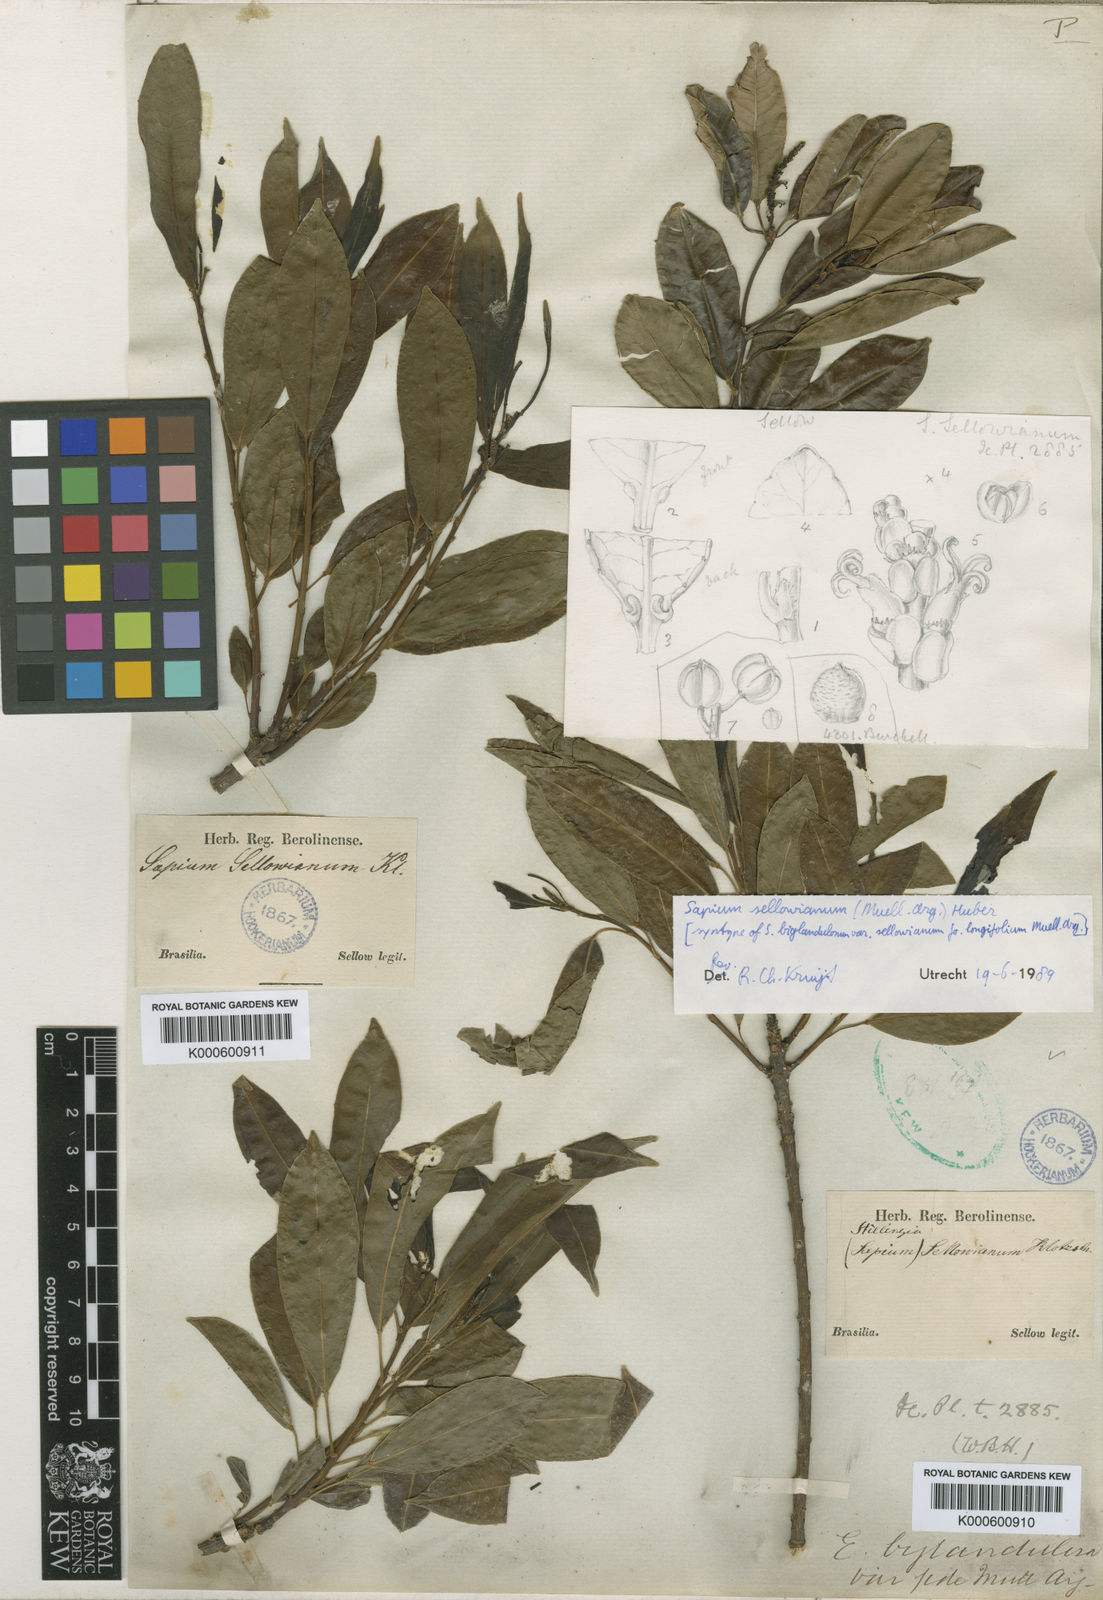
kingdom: Plantae
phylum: Tracheophyta
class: Magnoliopsida
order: Malpighiales
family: Euphorbiaceae
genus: Sapium
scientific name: Sapium
